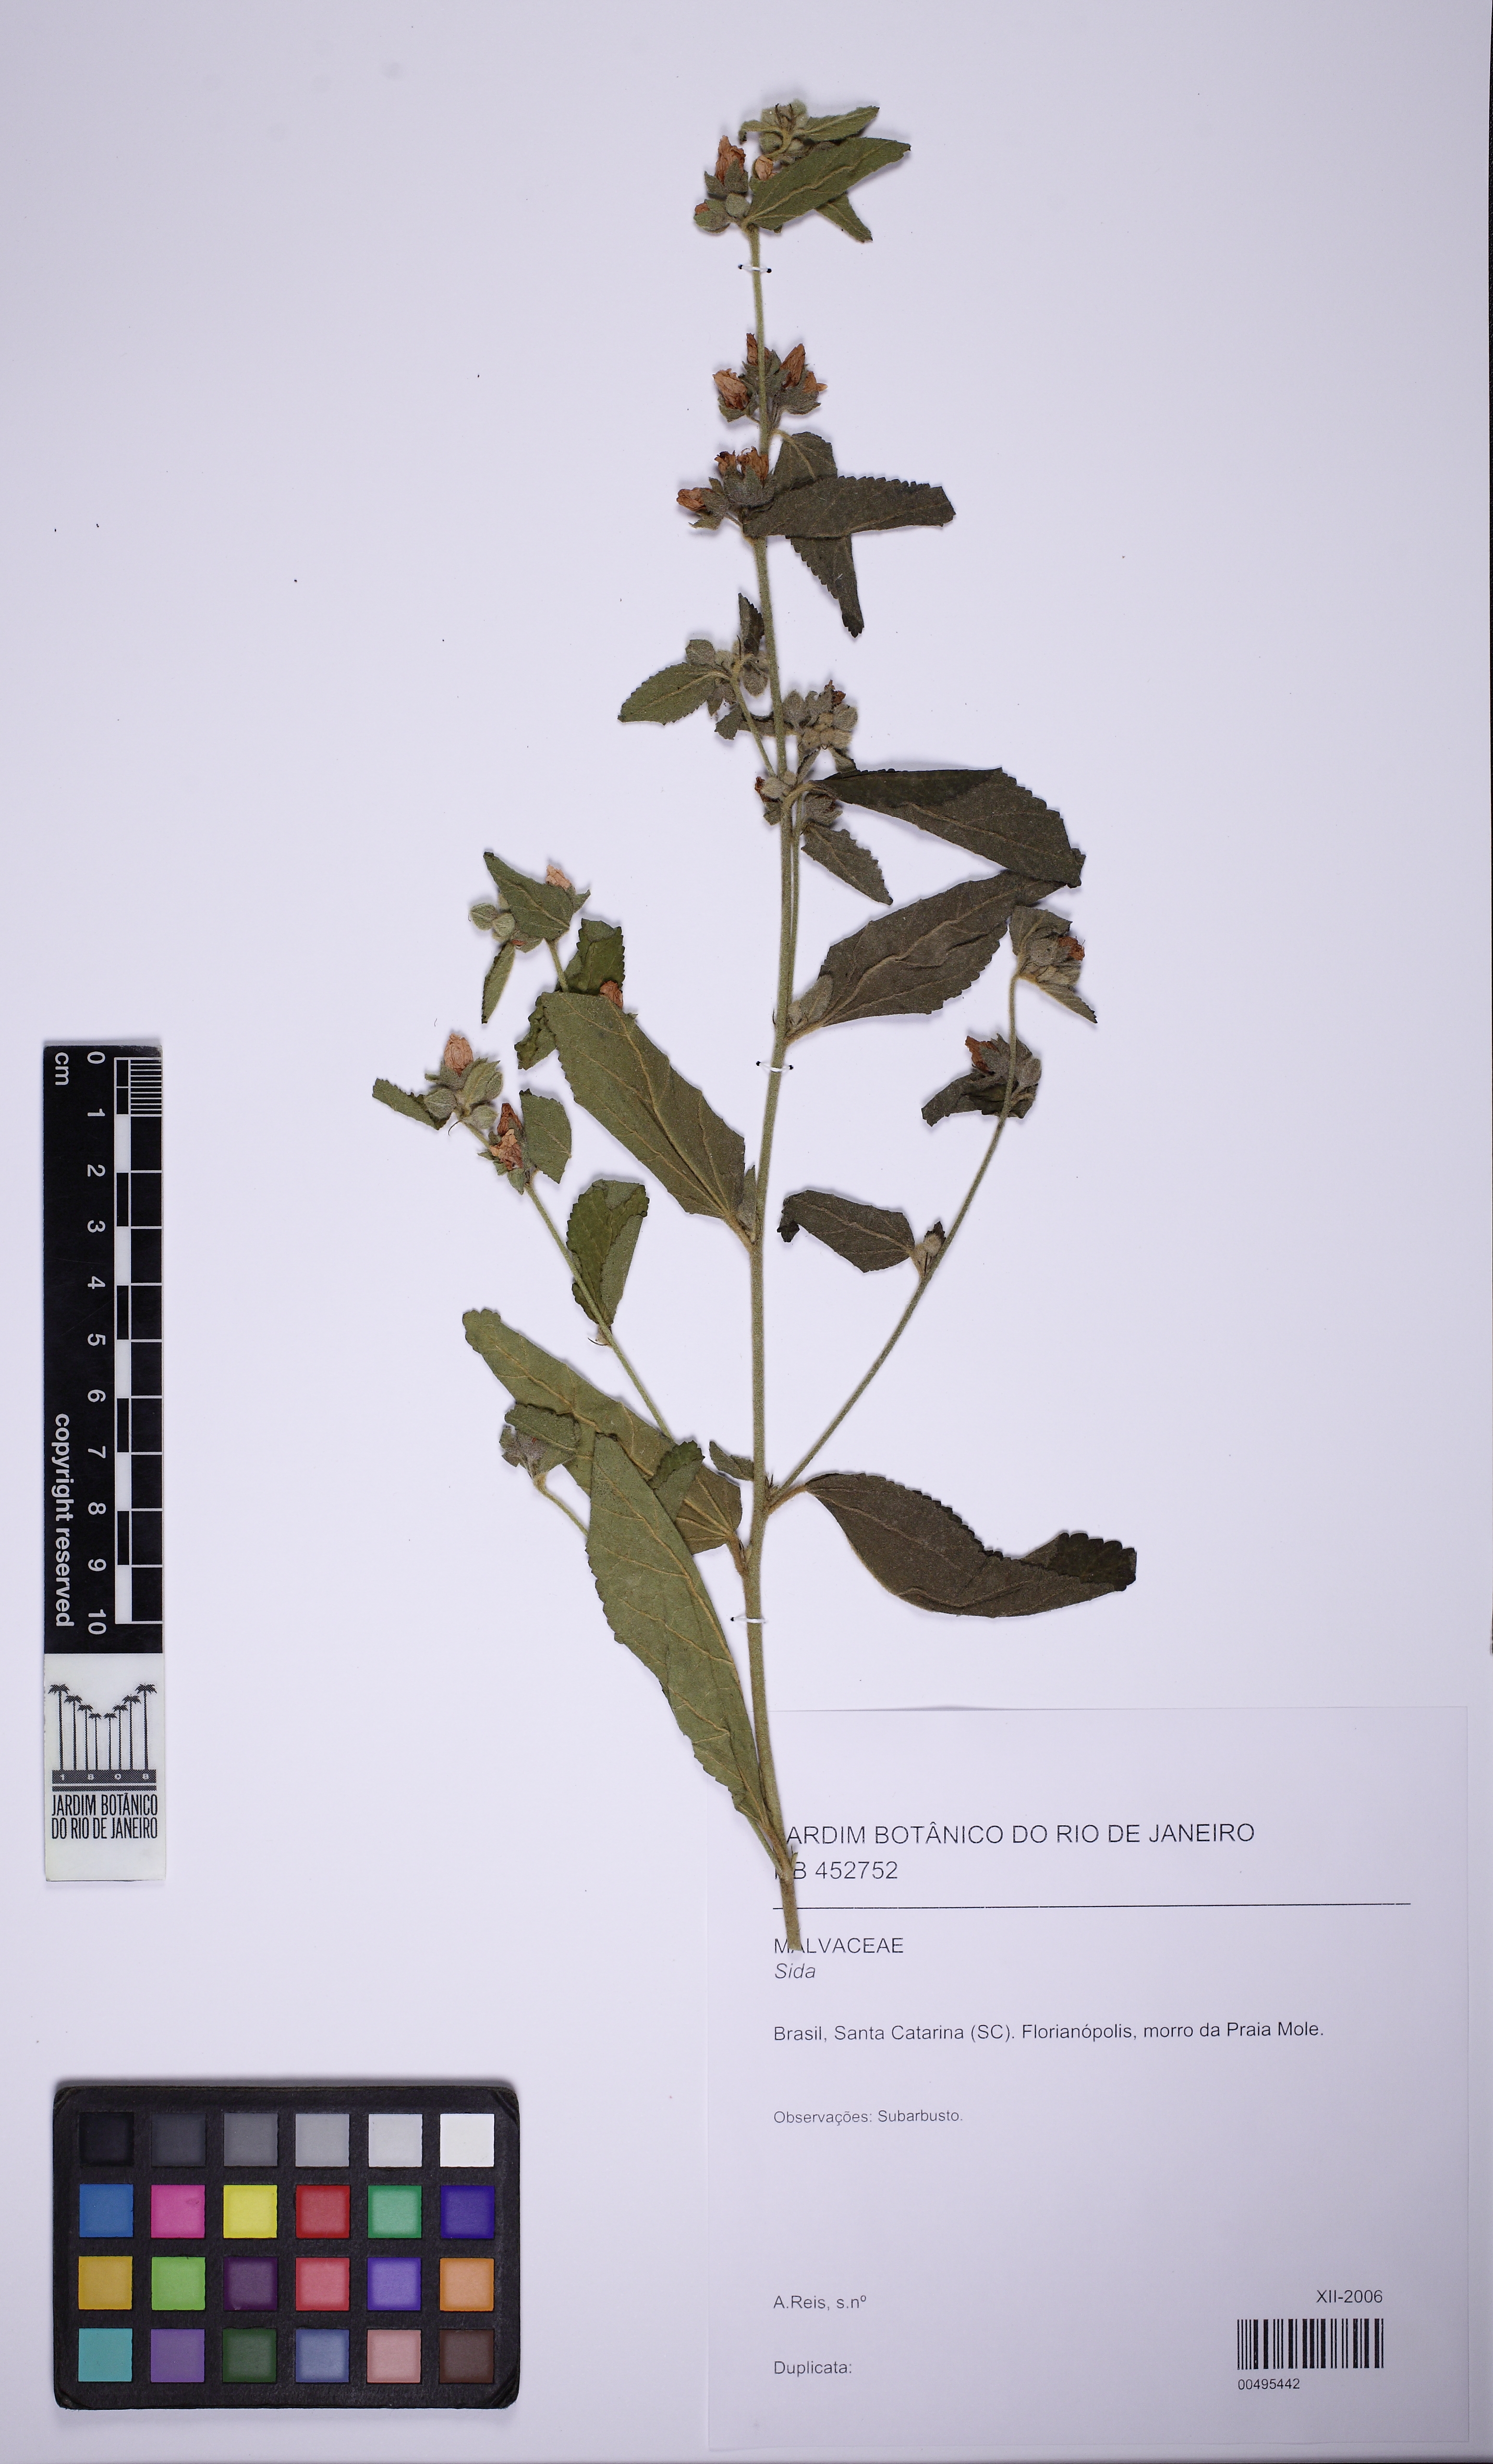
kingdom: Plantae
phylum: Tracheophyta
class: Magnoliopsida
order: Malvales
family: Malvaceae
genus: Sidastrum
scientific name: Sidastrum multiflorum
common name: Manyflower sandmallow
